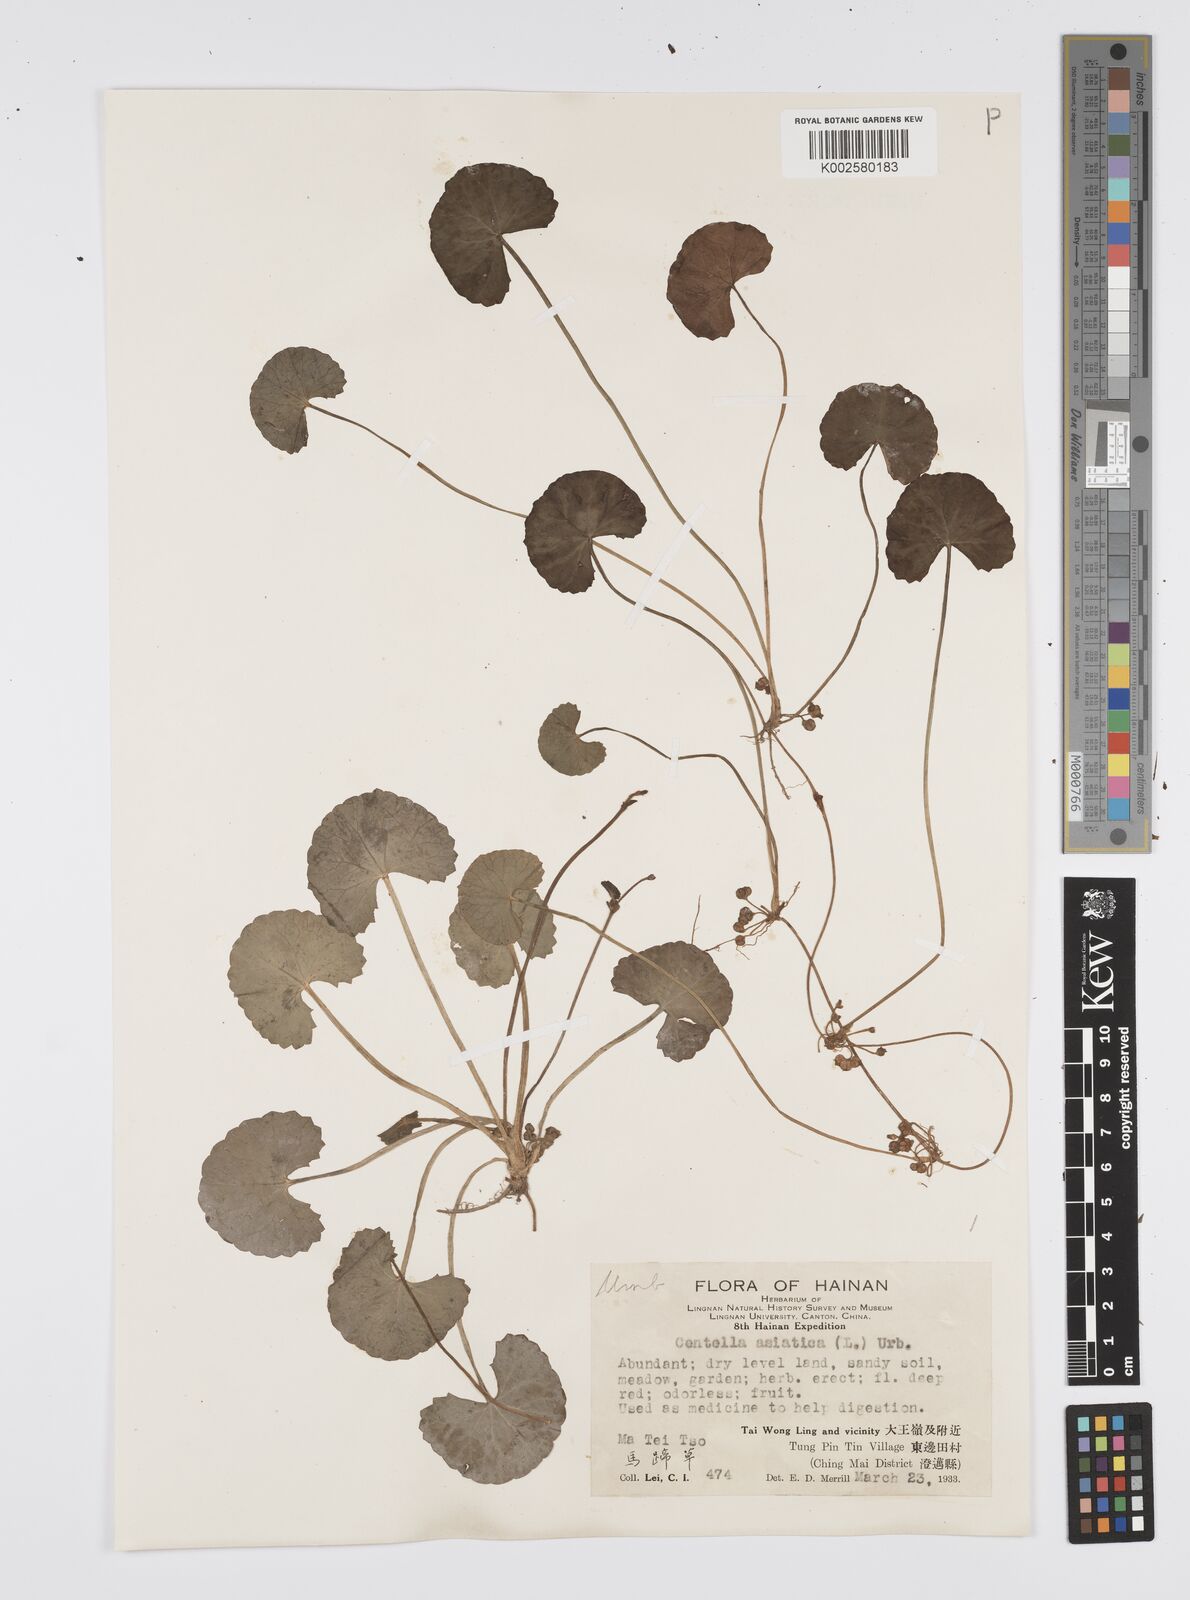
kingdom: Plantae
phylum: Tracheophyta
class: Magnoliopsida
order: Apiales
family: Apiaceae
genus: Centella
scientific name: Centella
